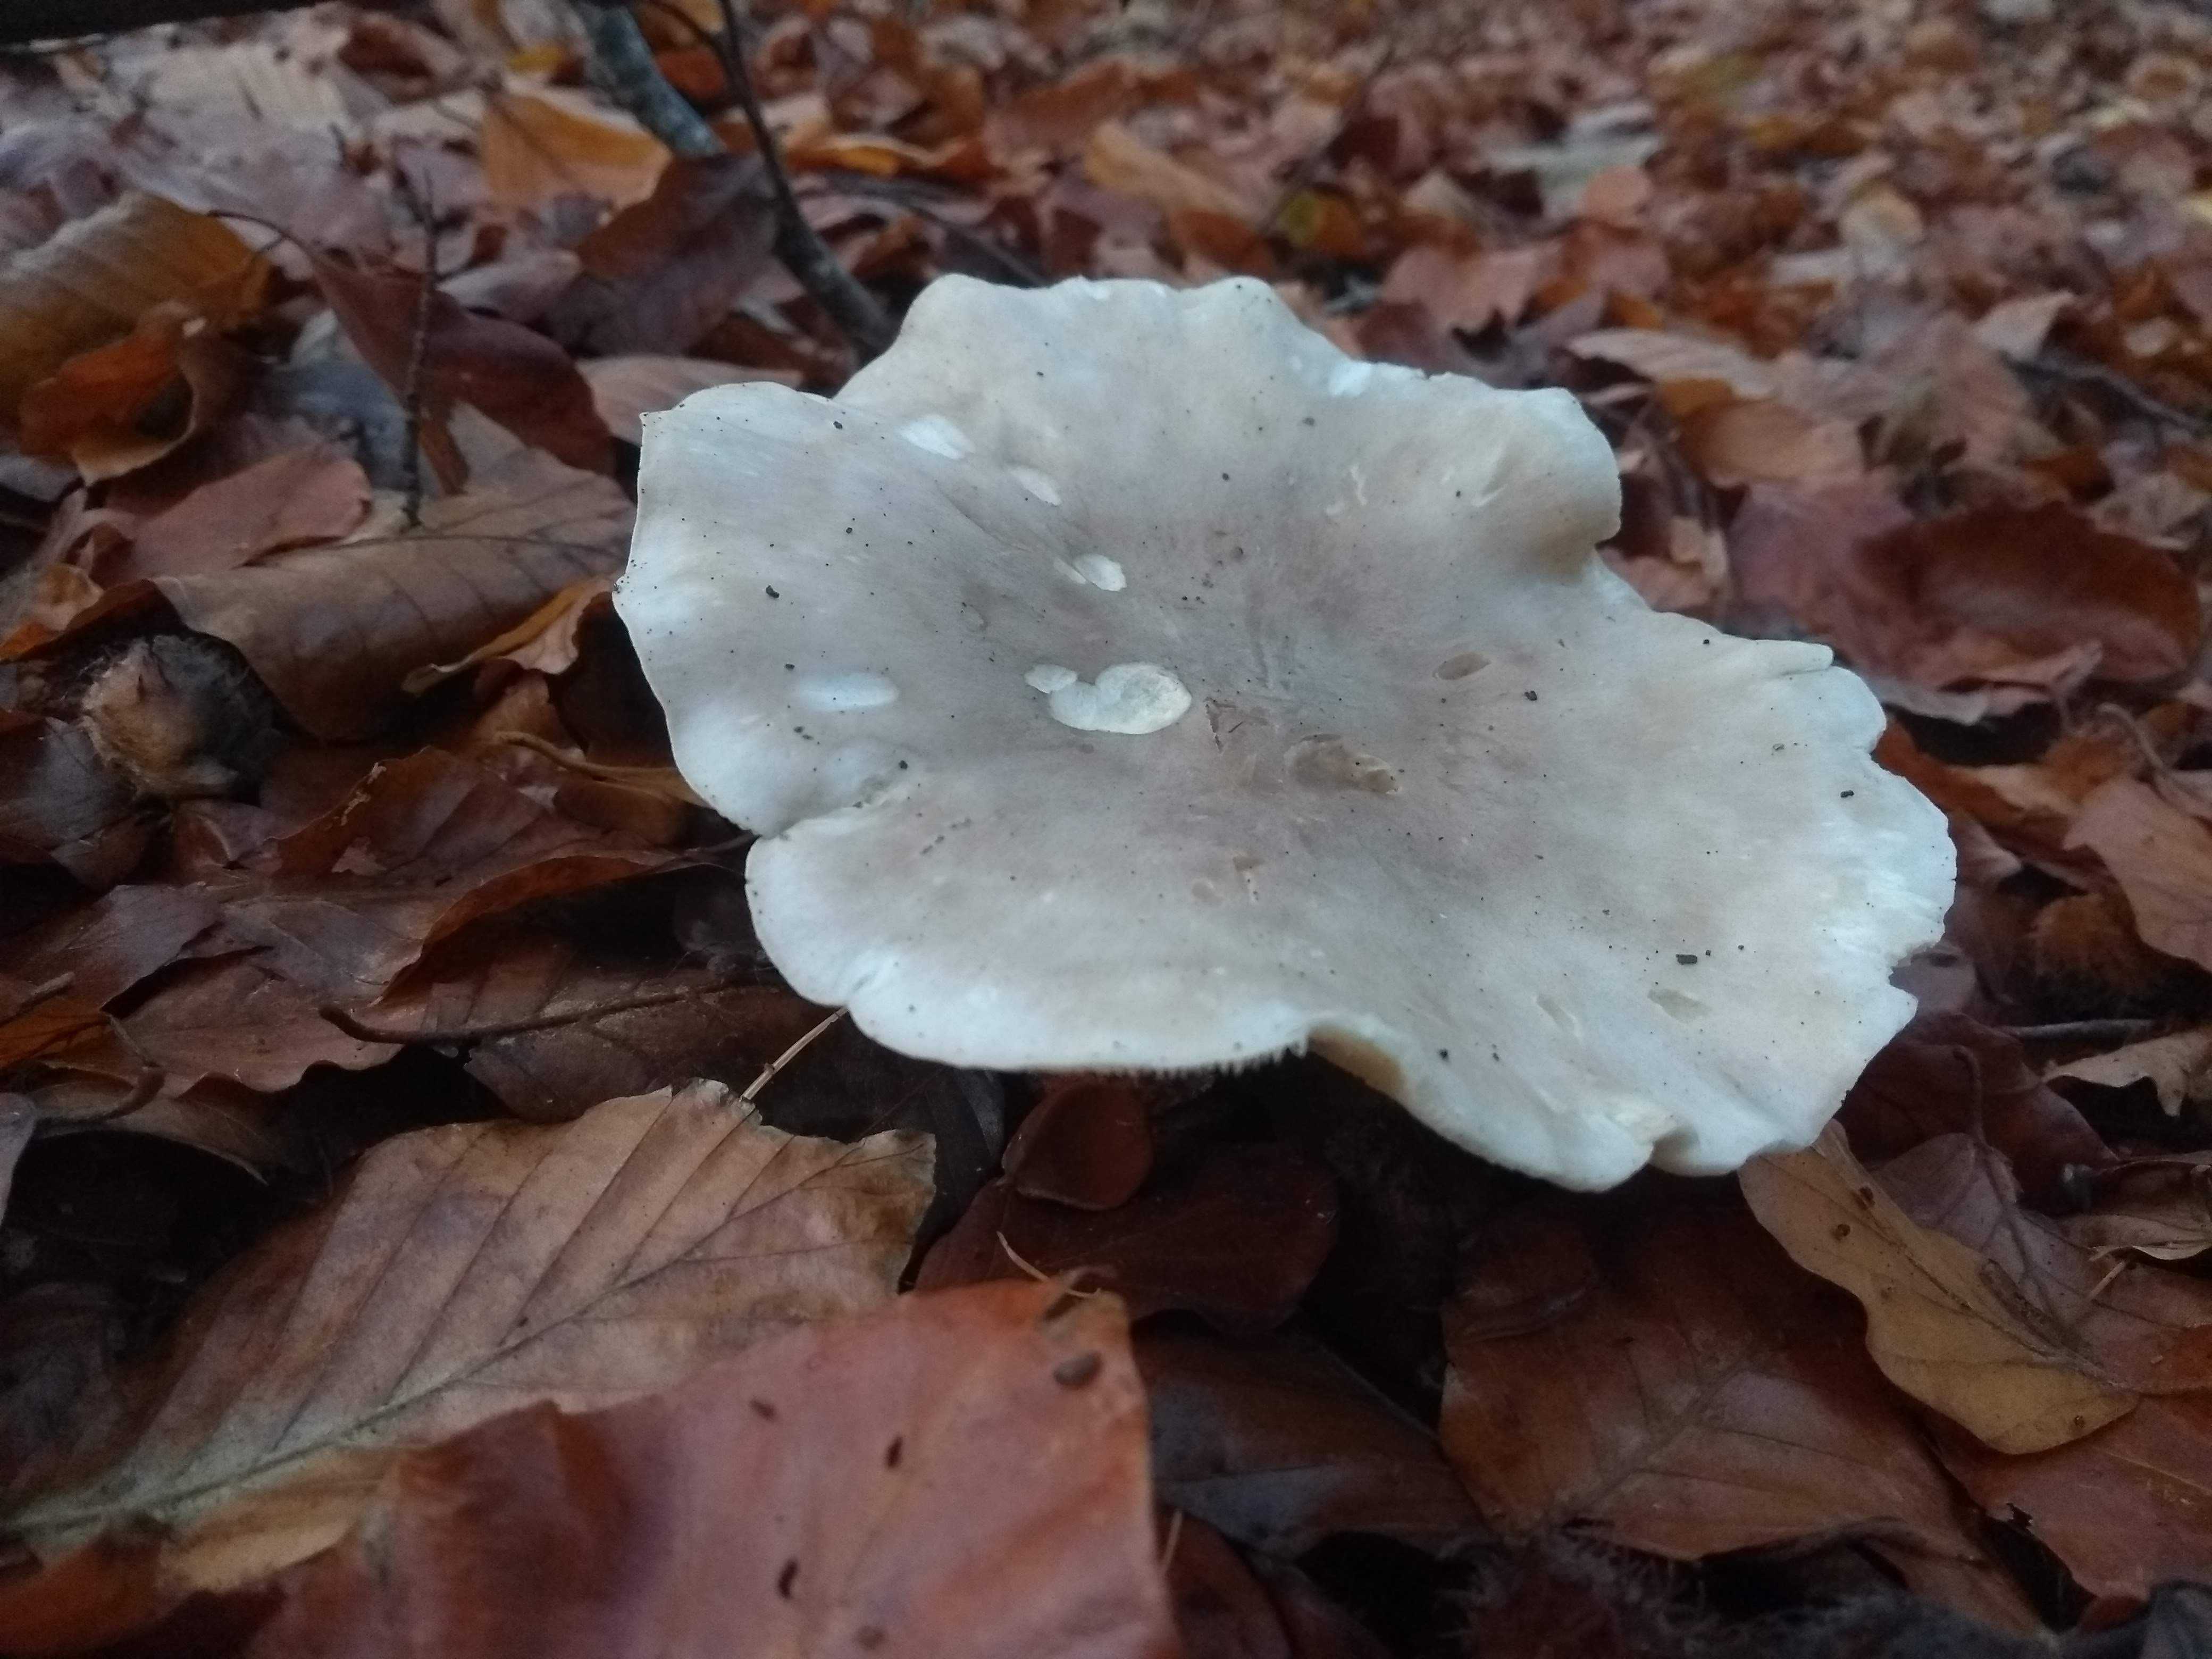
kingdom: Fungi
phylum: Basidiomycota
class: Agaricomycetes
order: Agaricales
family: Tricholomataceae
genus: Clitocybe
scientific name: Clitocybe nebularis
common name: tåge-tragthat
